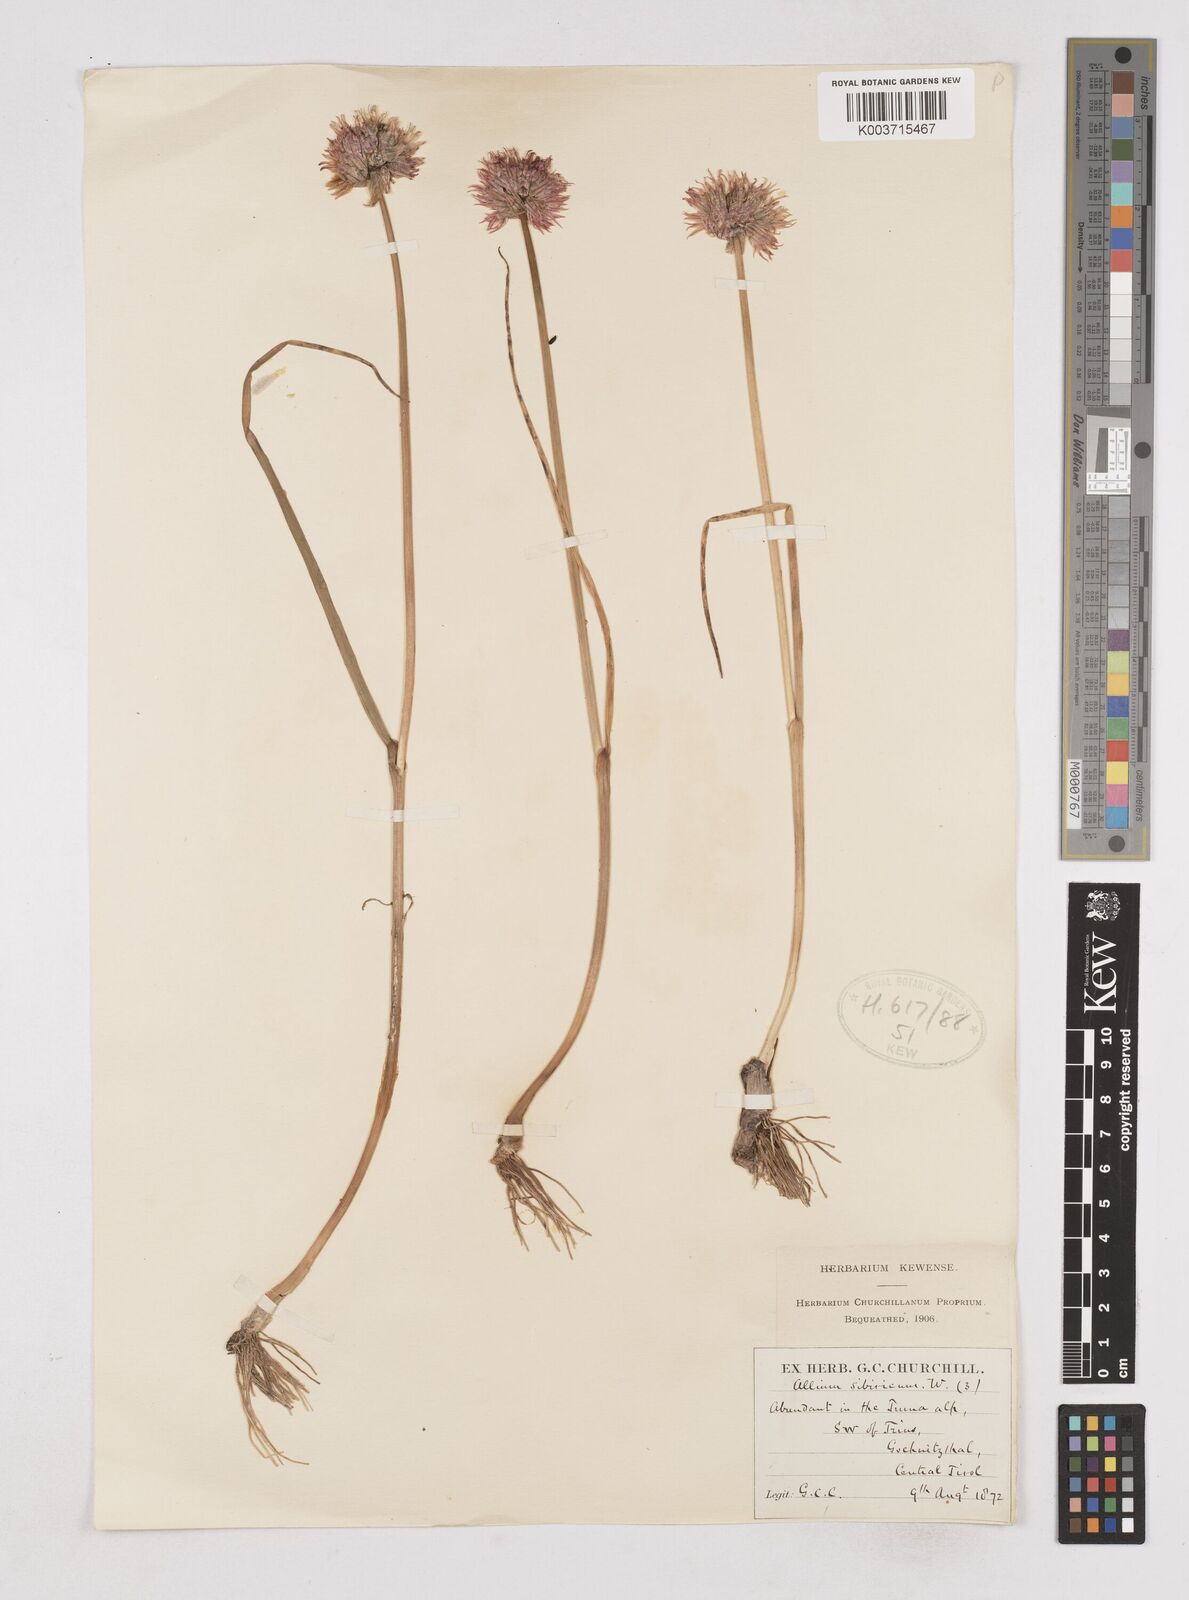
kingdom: Plantae
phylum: Tracheophyta
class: Liliopsida
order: Asparagales
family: Amaryllidaceae
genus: Allium
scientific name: Allium schoenoprasum
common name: Chives
